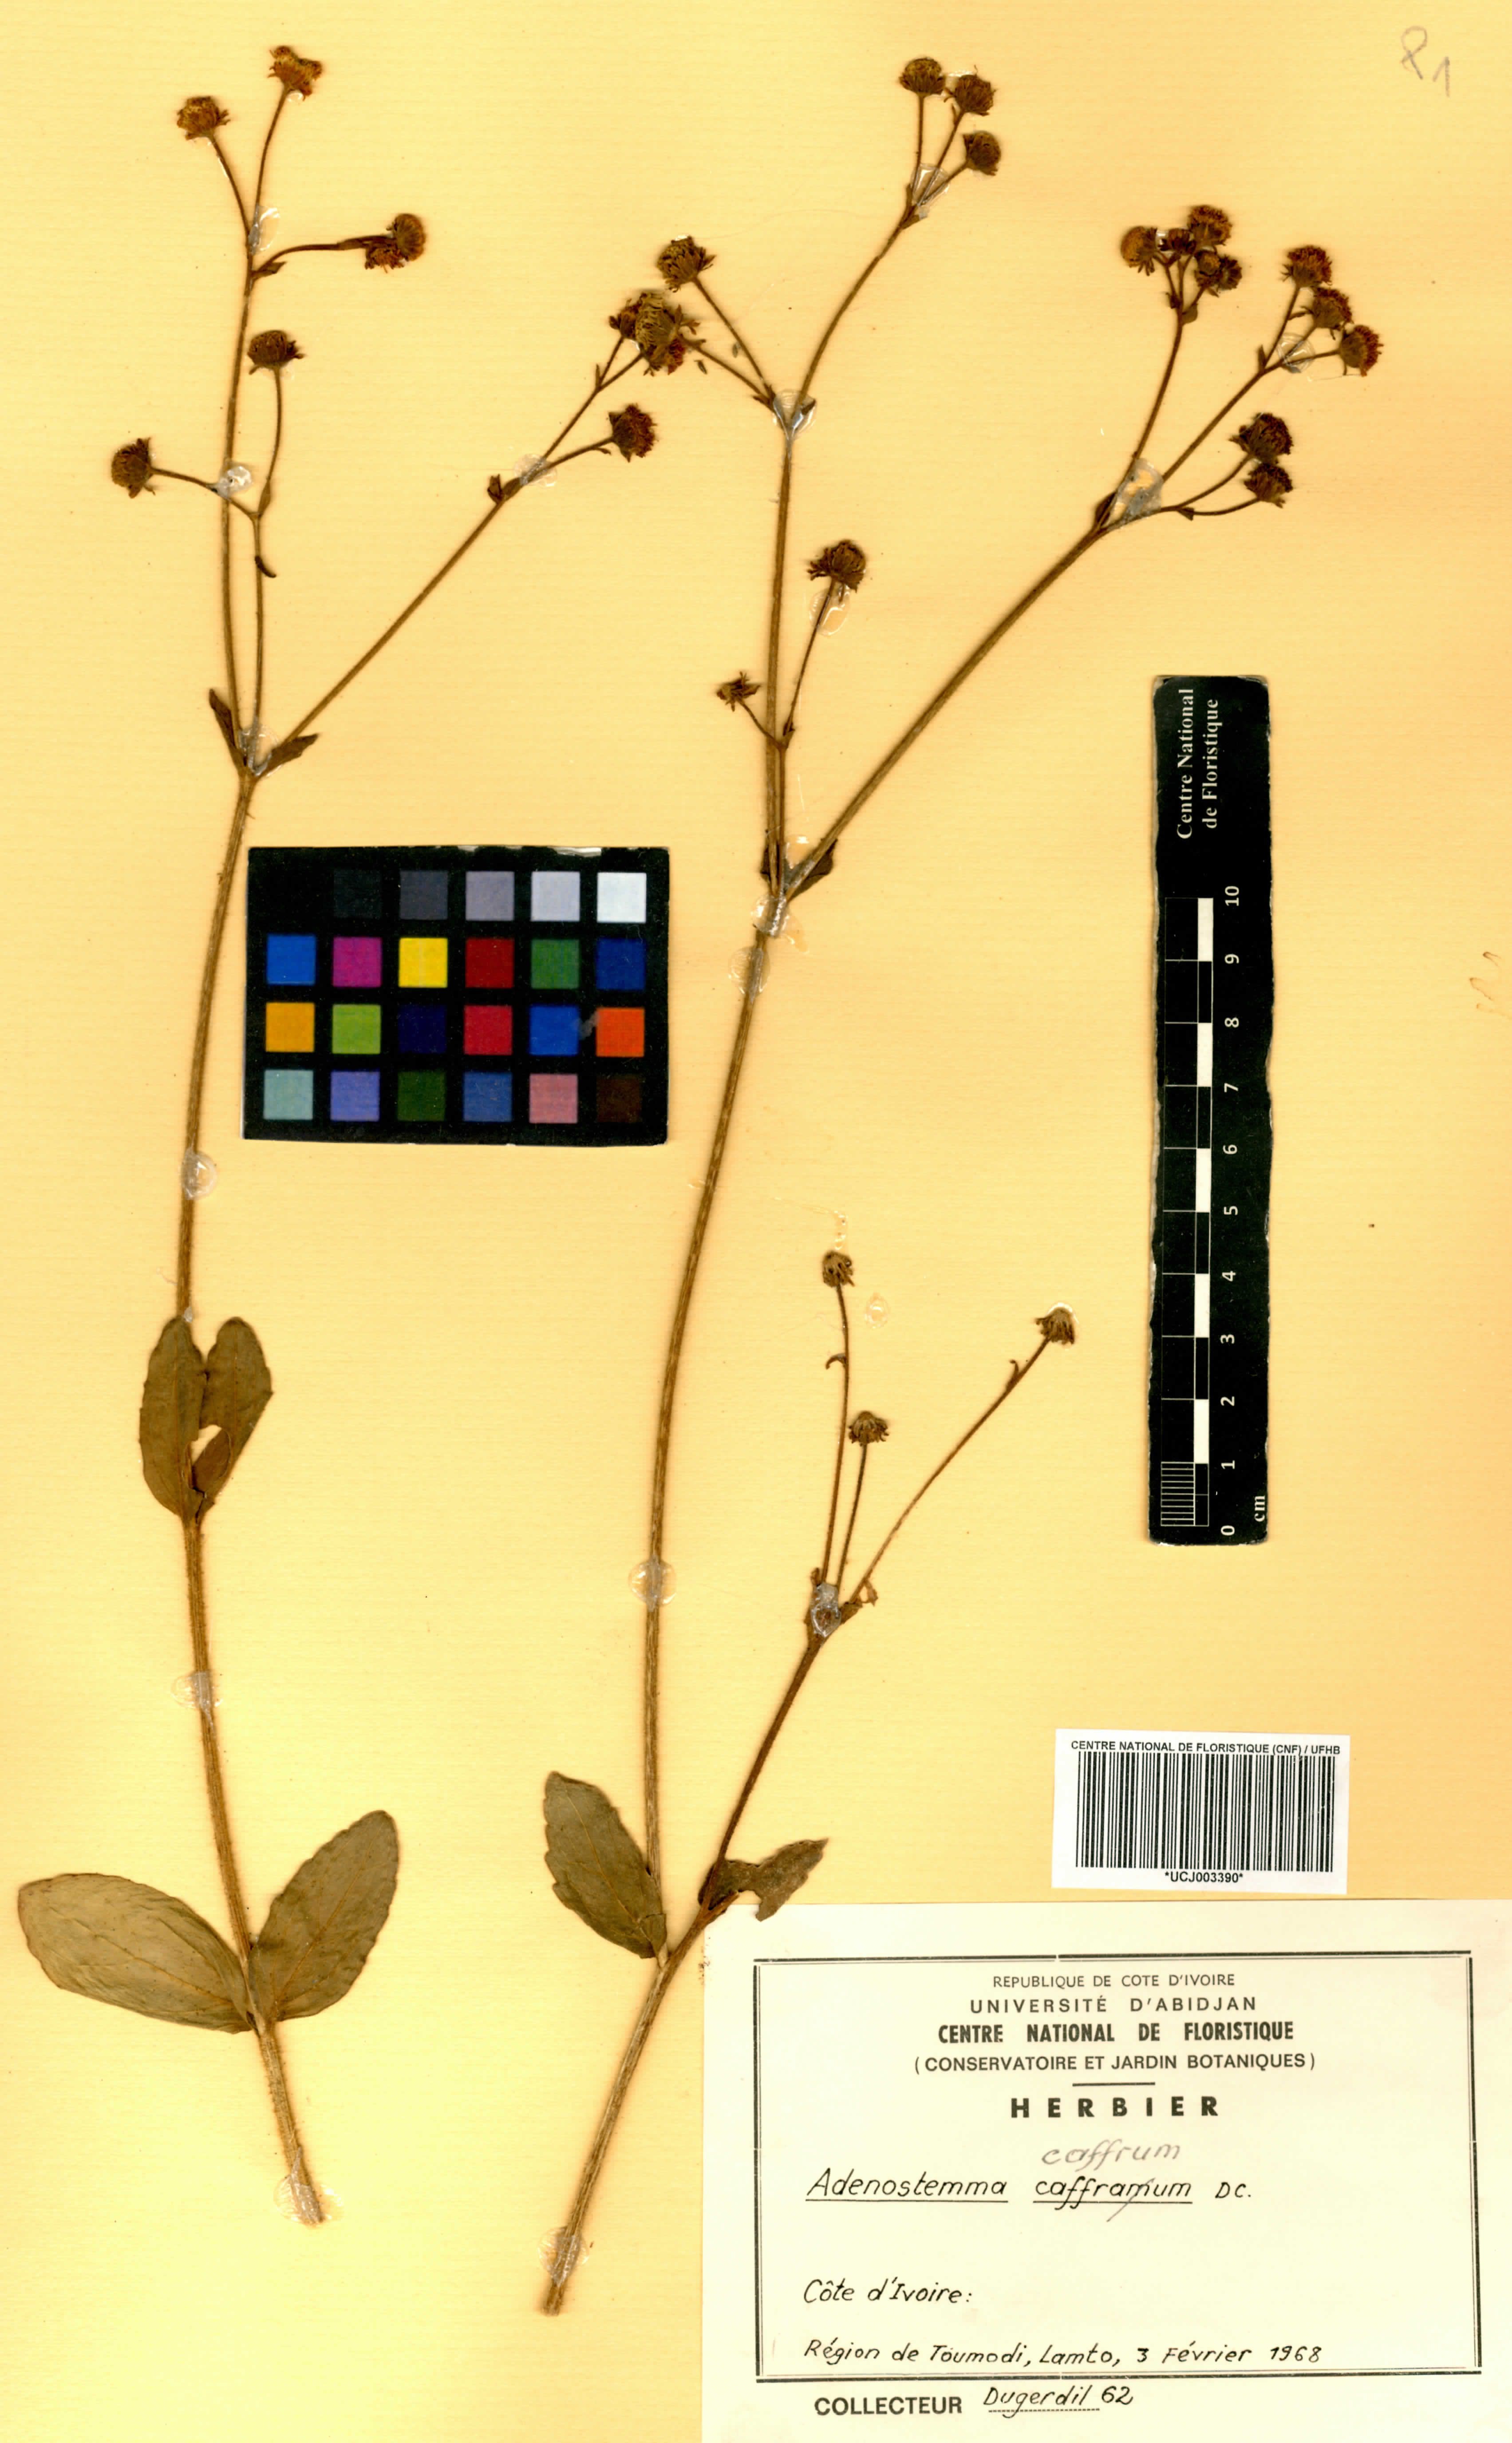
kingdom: Plantae
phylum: Tracheophyta
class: Magnoliopsida
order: Asterales
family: Asteraceae
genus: Adenostemma
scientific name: Adenostemma caffrum
